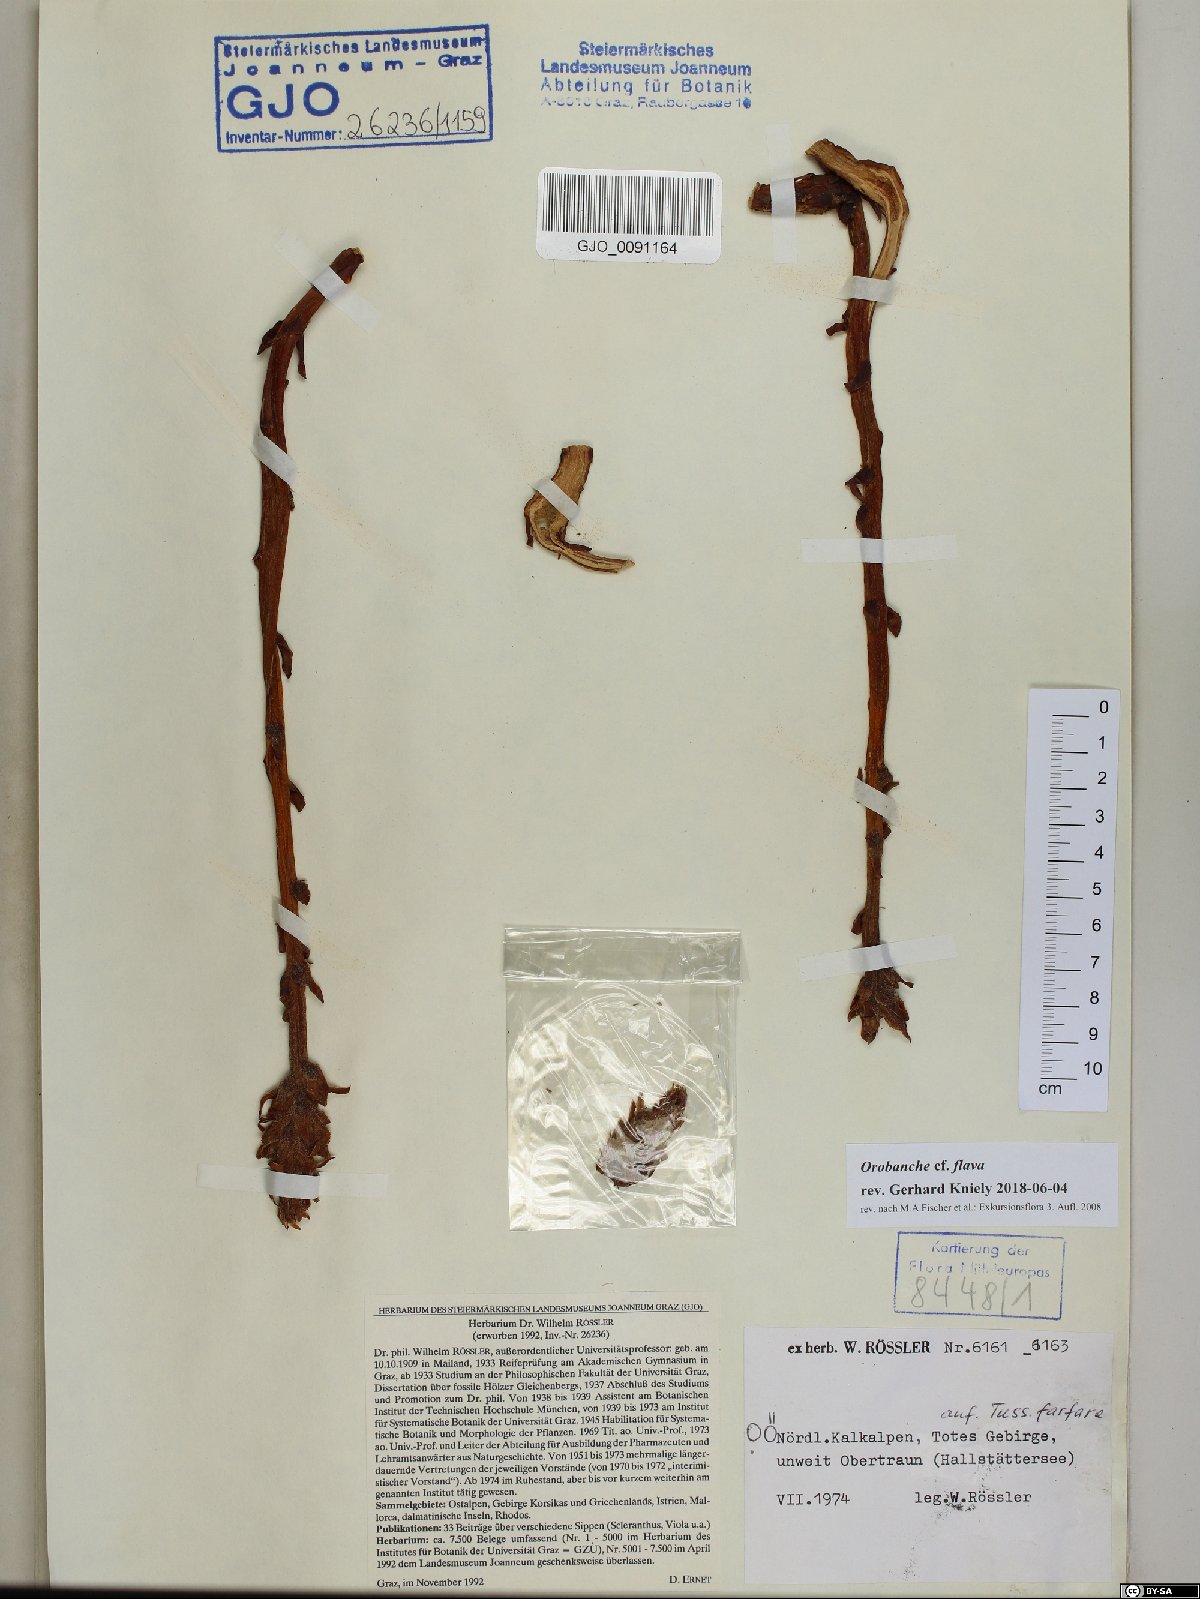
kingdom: Plantae
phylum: Tracheophyta
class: Magnoliopsida
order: Lamiales
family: Orobanchaceae
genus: Orobanche
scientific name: Orobanche flava
